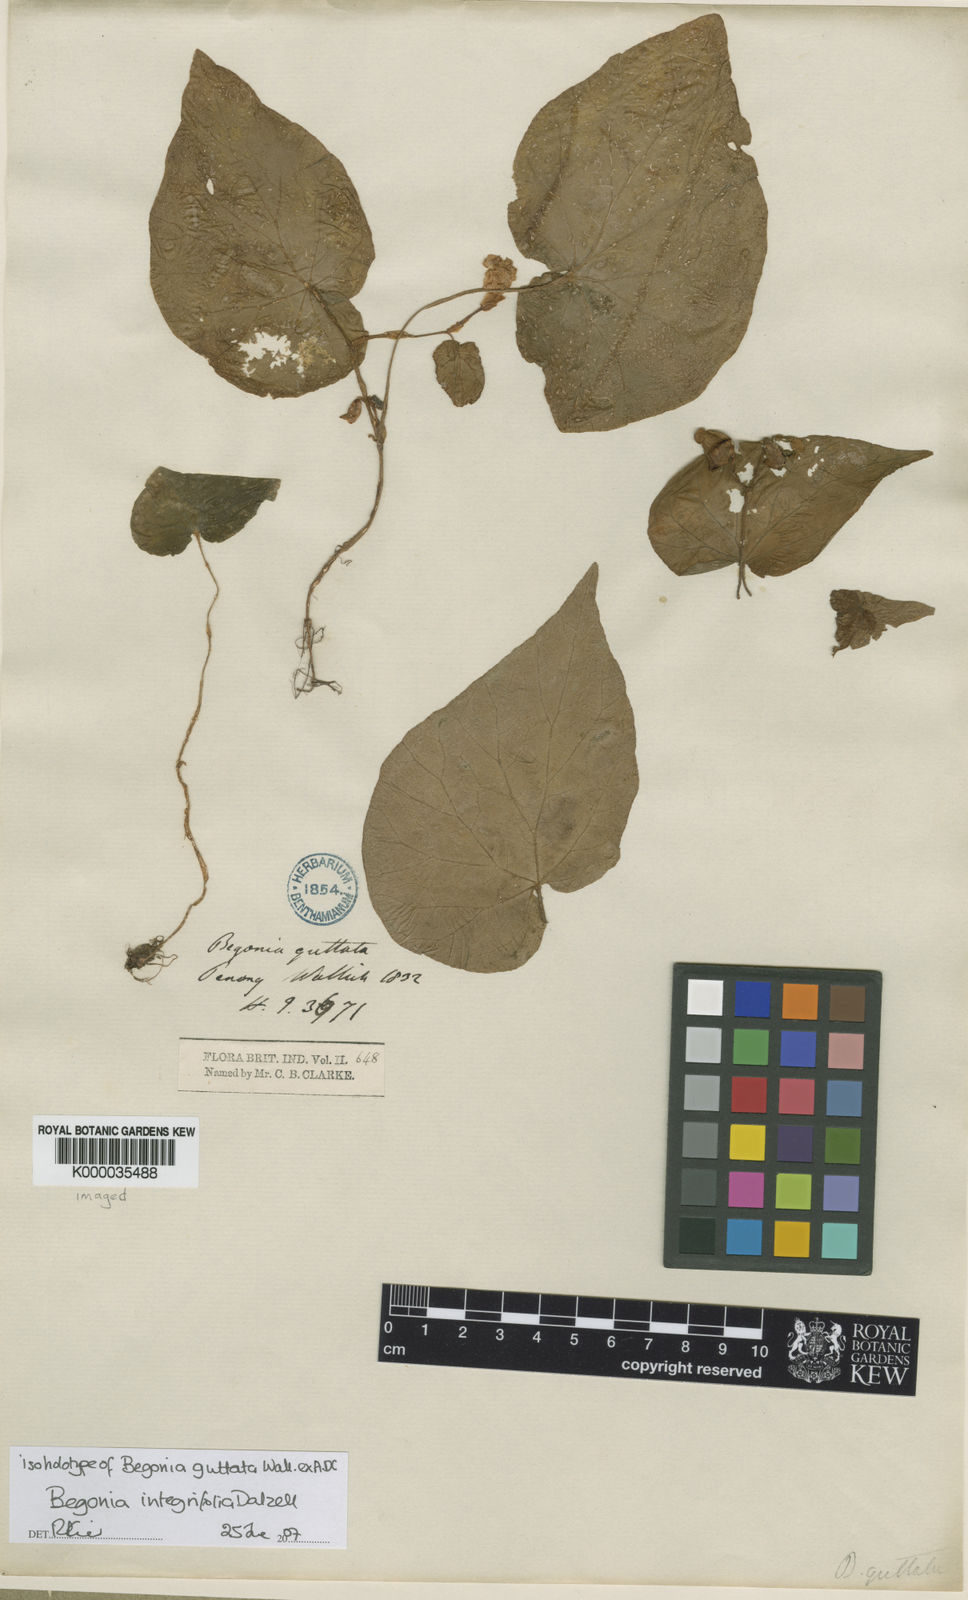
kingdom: Plantae
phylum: Tracheophyta
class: Magnoliopsida
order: Cucurbitales
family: Begoniaceae
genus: Begonia
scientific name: Begonia integrifolia
